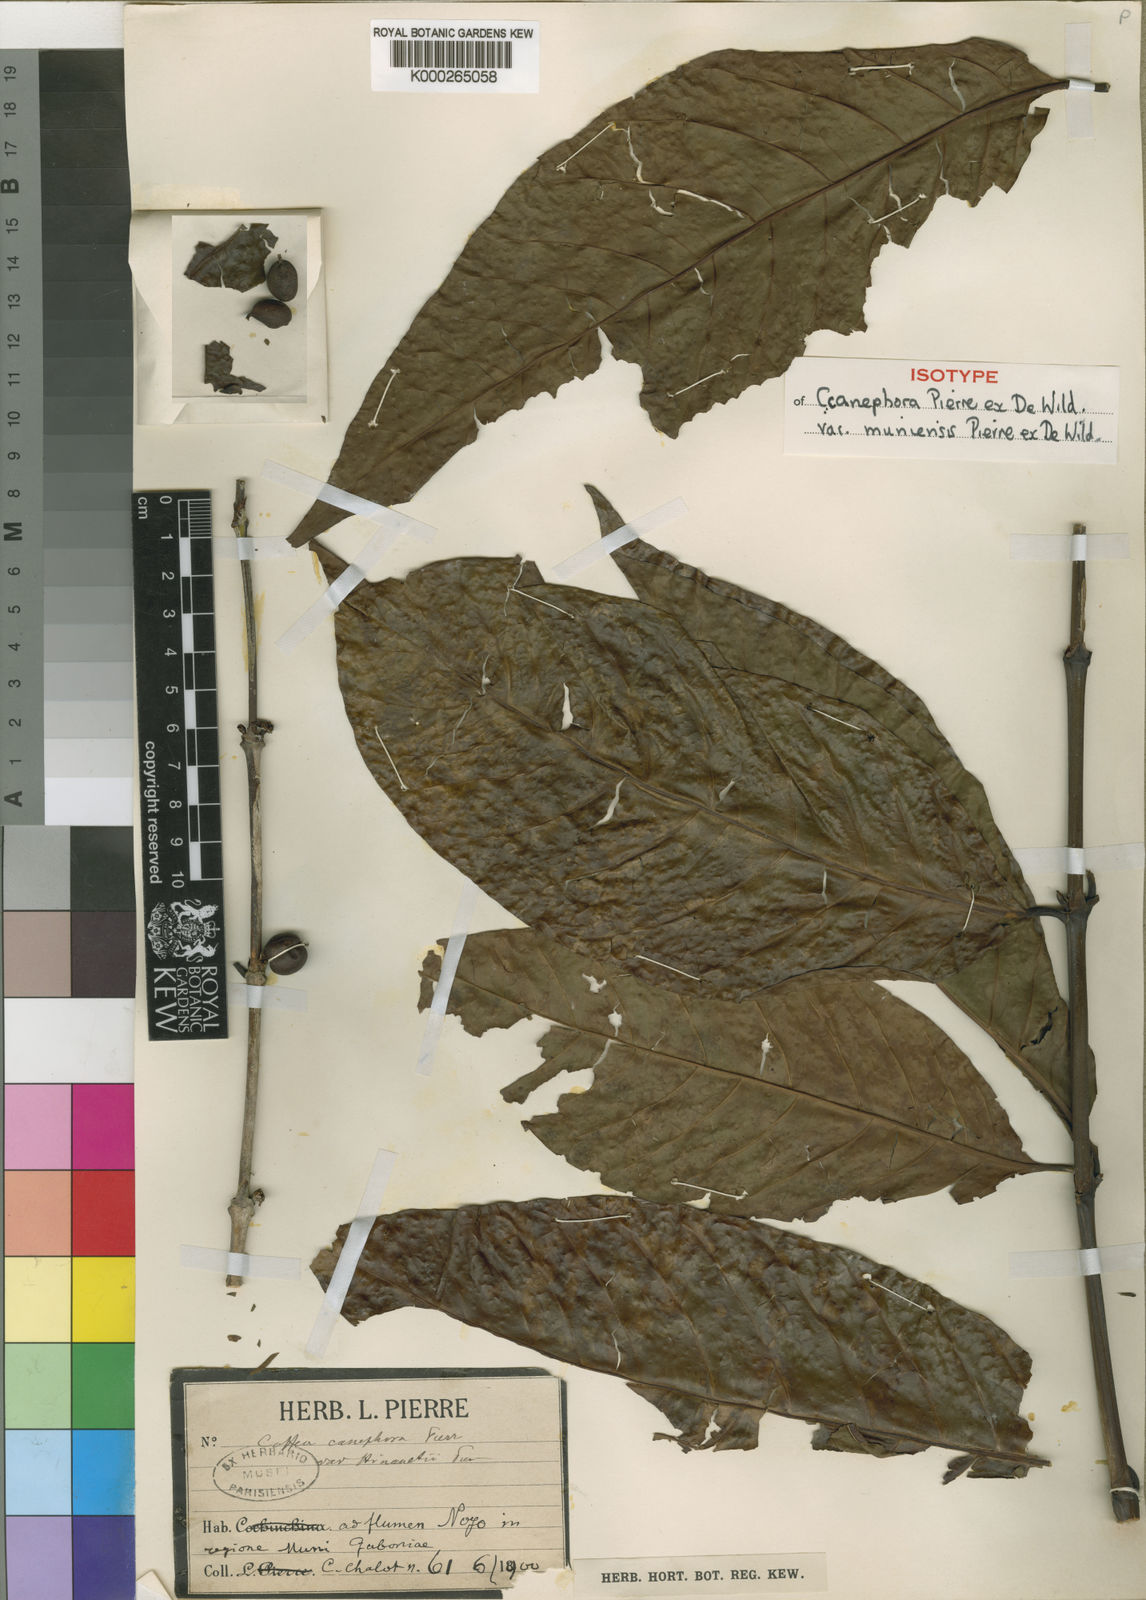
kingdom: Plantae
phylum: Tracheophyta
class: Magnoliopsida
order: Gentianales
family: Rubiaceae
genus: Coffea
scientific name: Coffea canephora
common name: Robusta coffee
